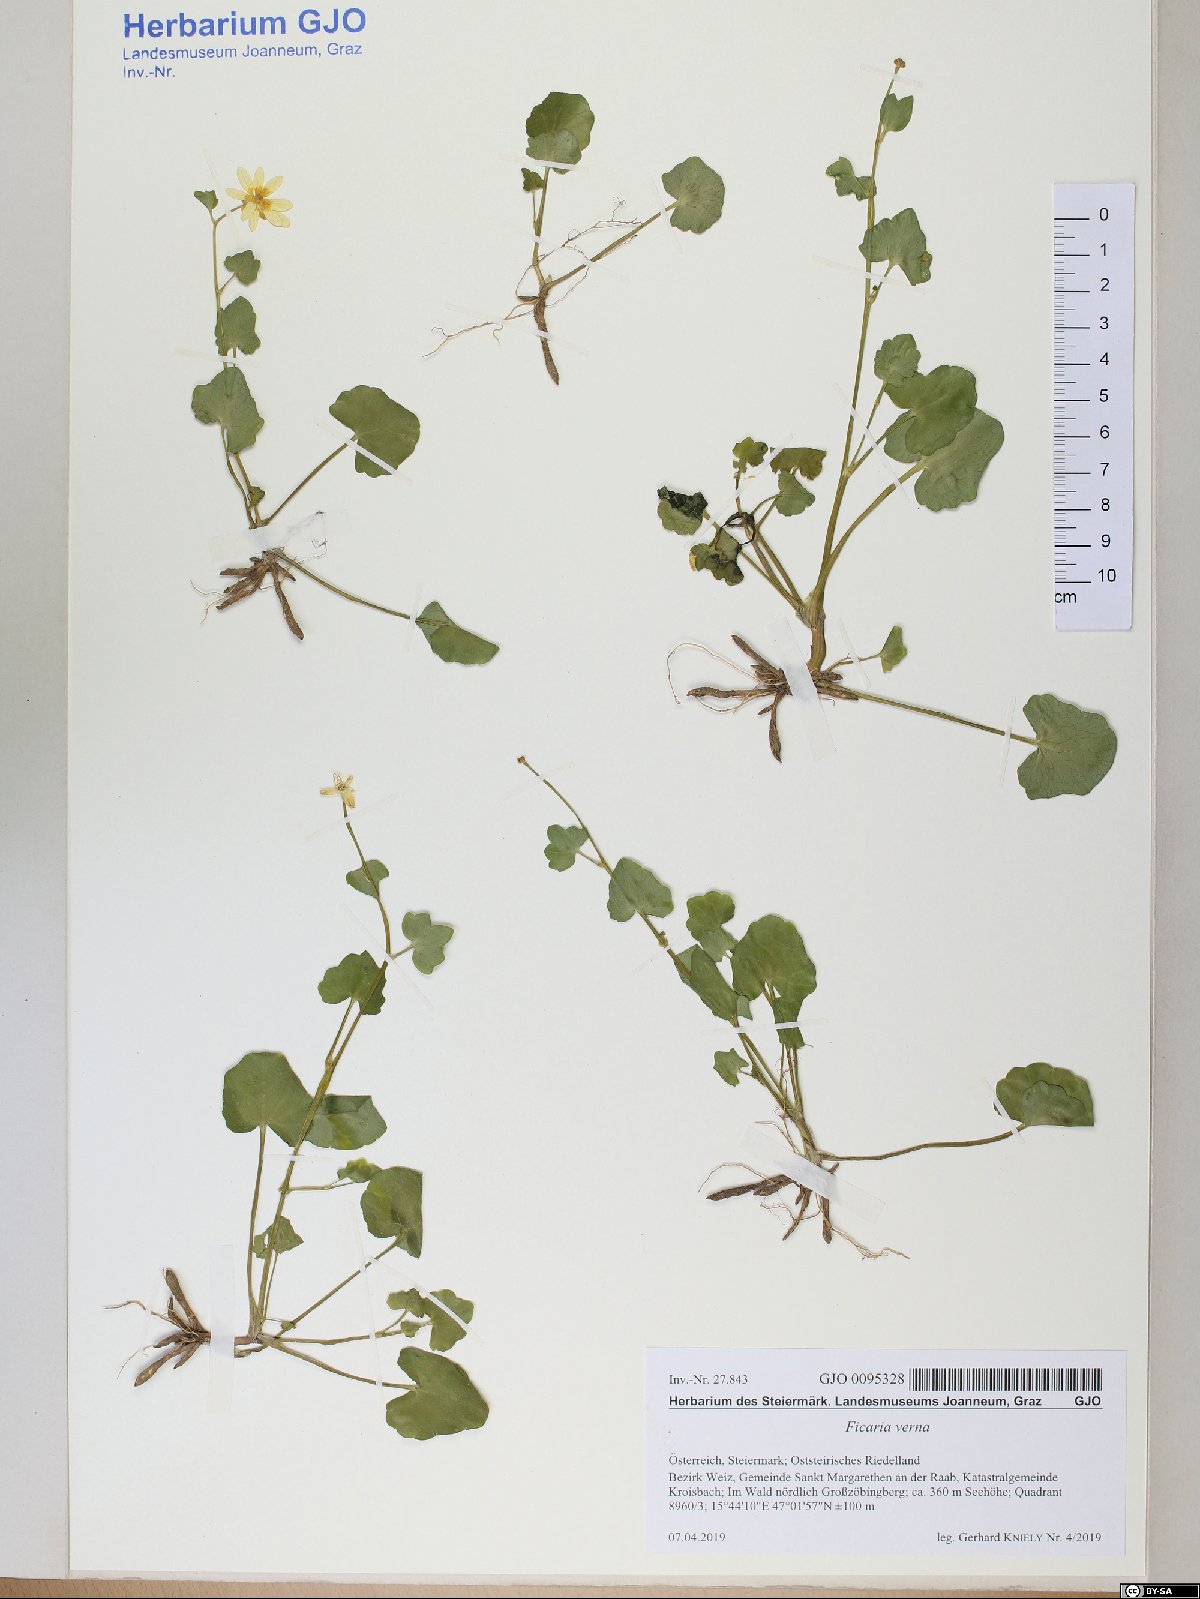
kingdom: Plantae
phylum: Tracheophyta
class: Magnoliopsida
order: Ranunculales
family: Ranunculaceae
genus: Ficaria
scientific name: Ficaria verna
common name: Lesser celandine
